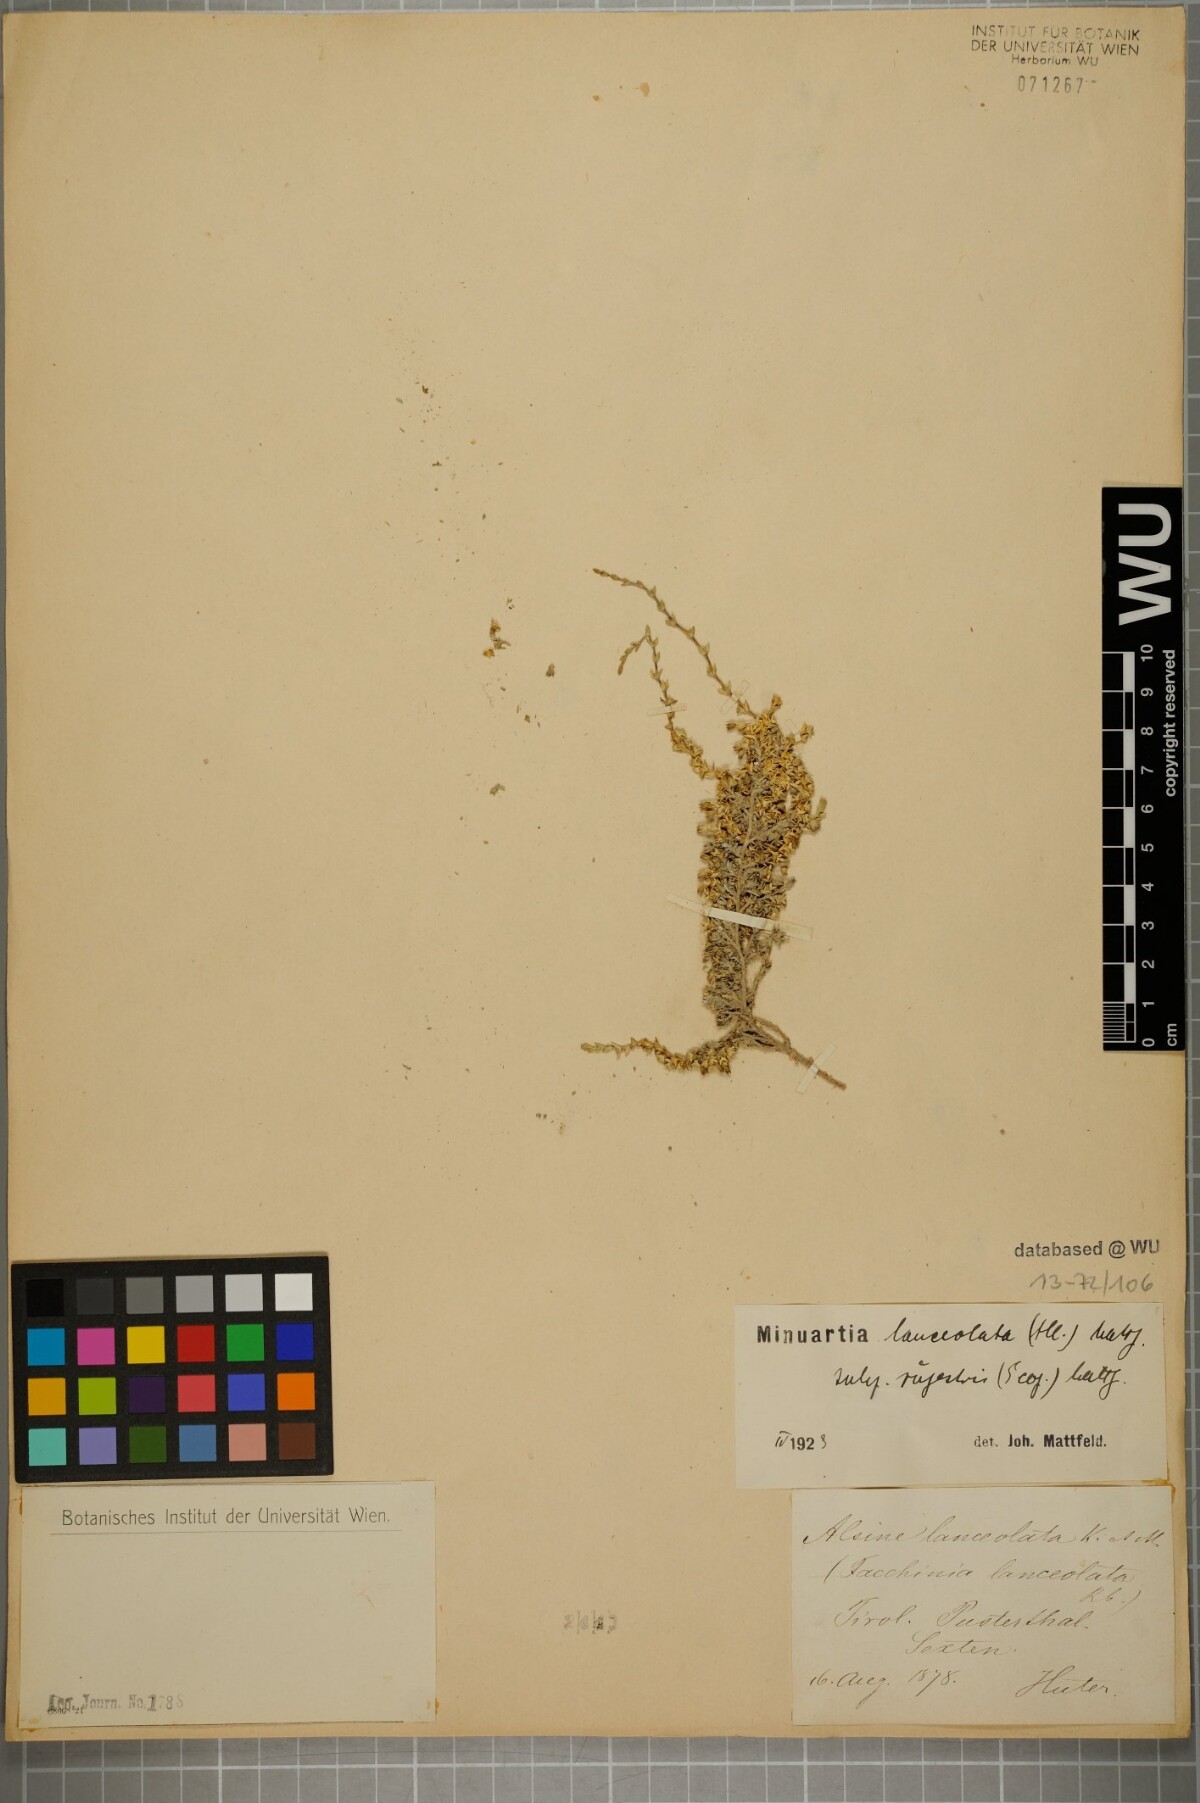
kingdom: Plantae
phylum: Tracheophyta
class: Magnoliopsida
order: Caryophyllales
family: Caryophyllaceae
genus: Facchinia
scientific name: Facchinia rupestris
